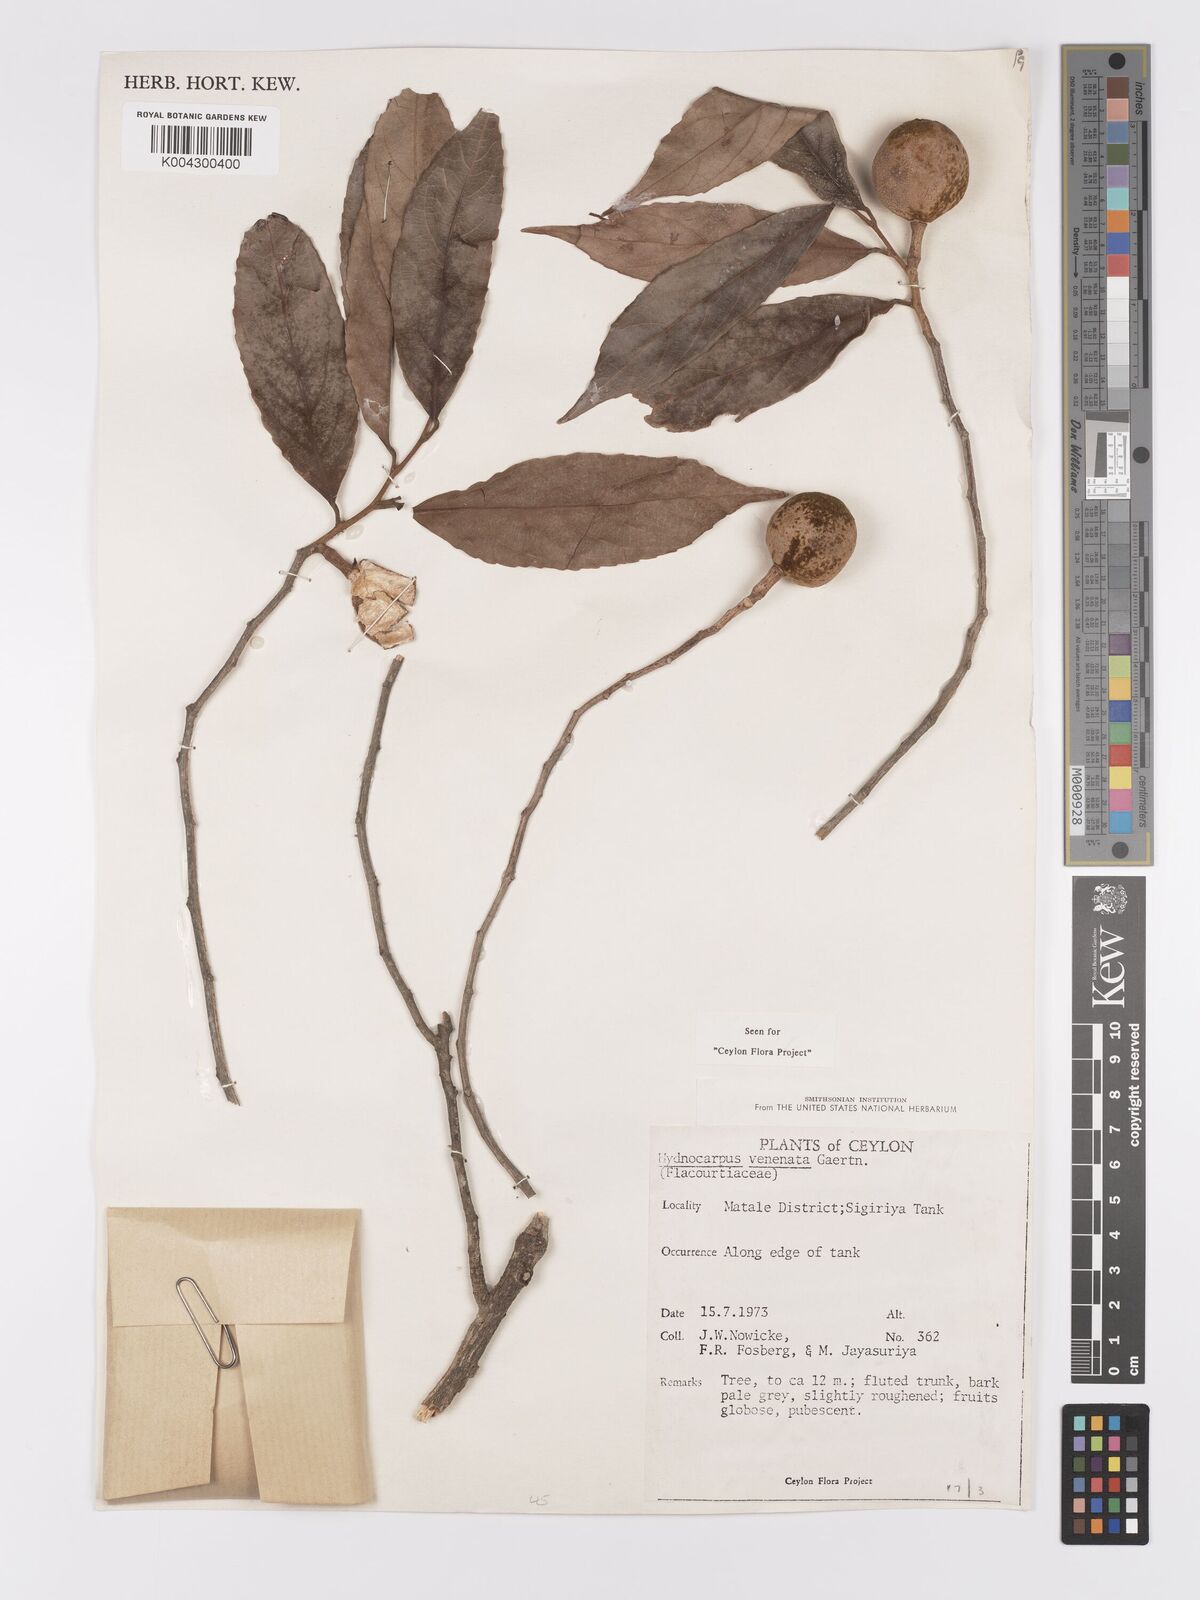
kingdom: Plantae
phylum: Tracheophyta
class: Magnoliopsida
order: Malpighiales
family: Achariaceae
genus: Hydnocarpus
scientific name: Hydnocarpus venenatus
